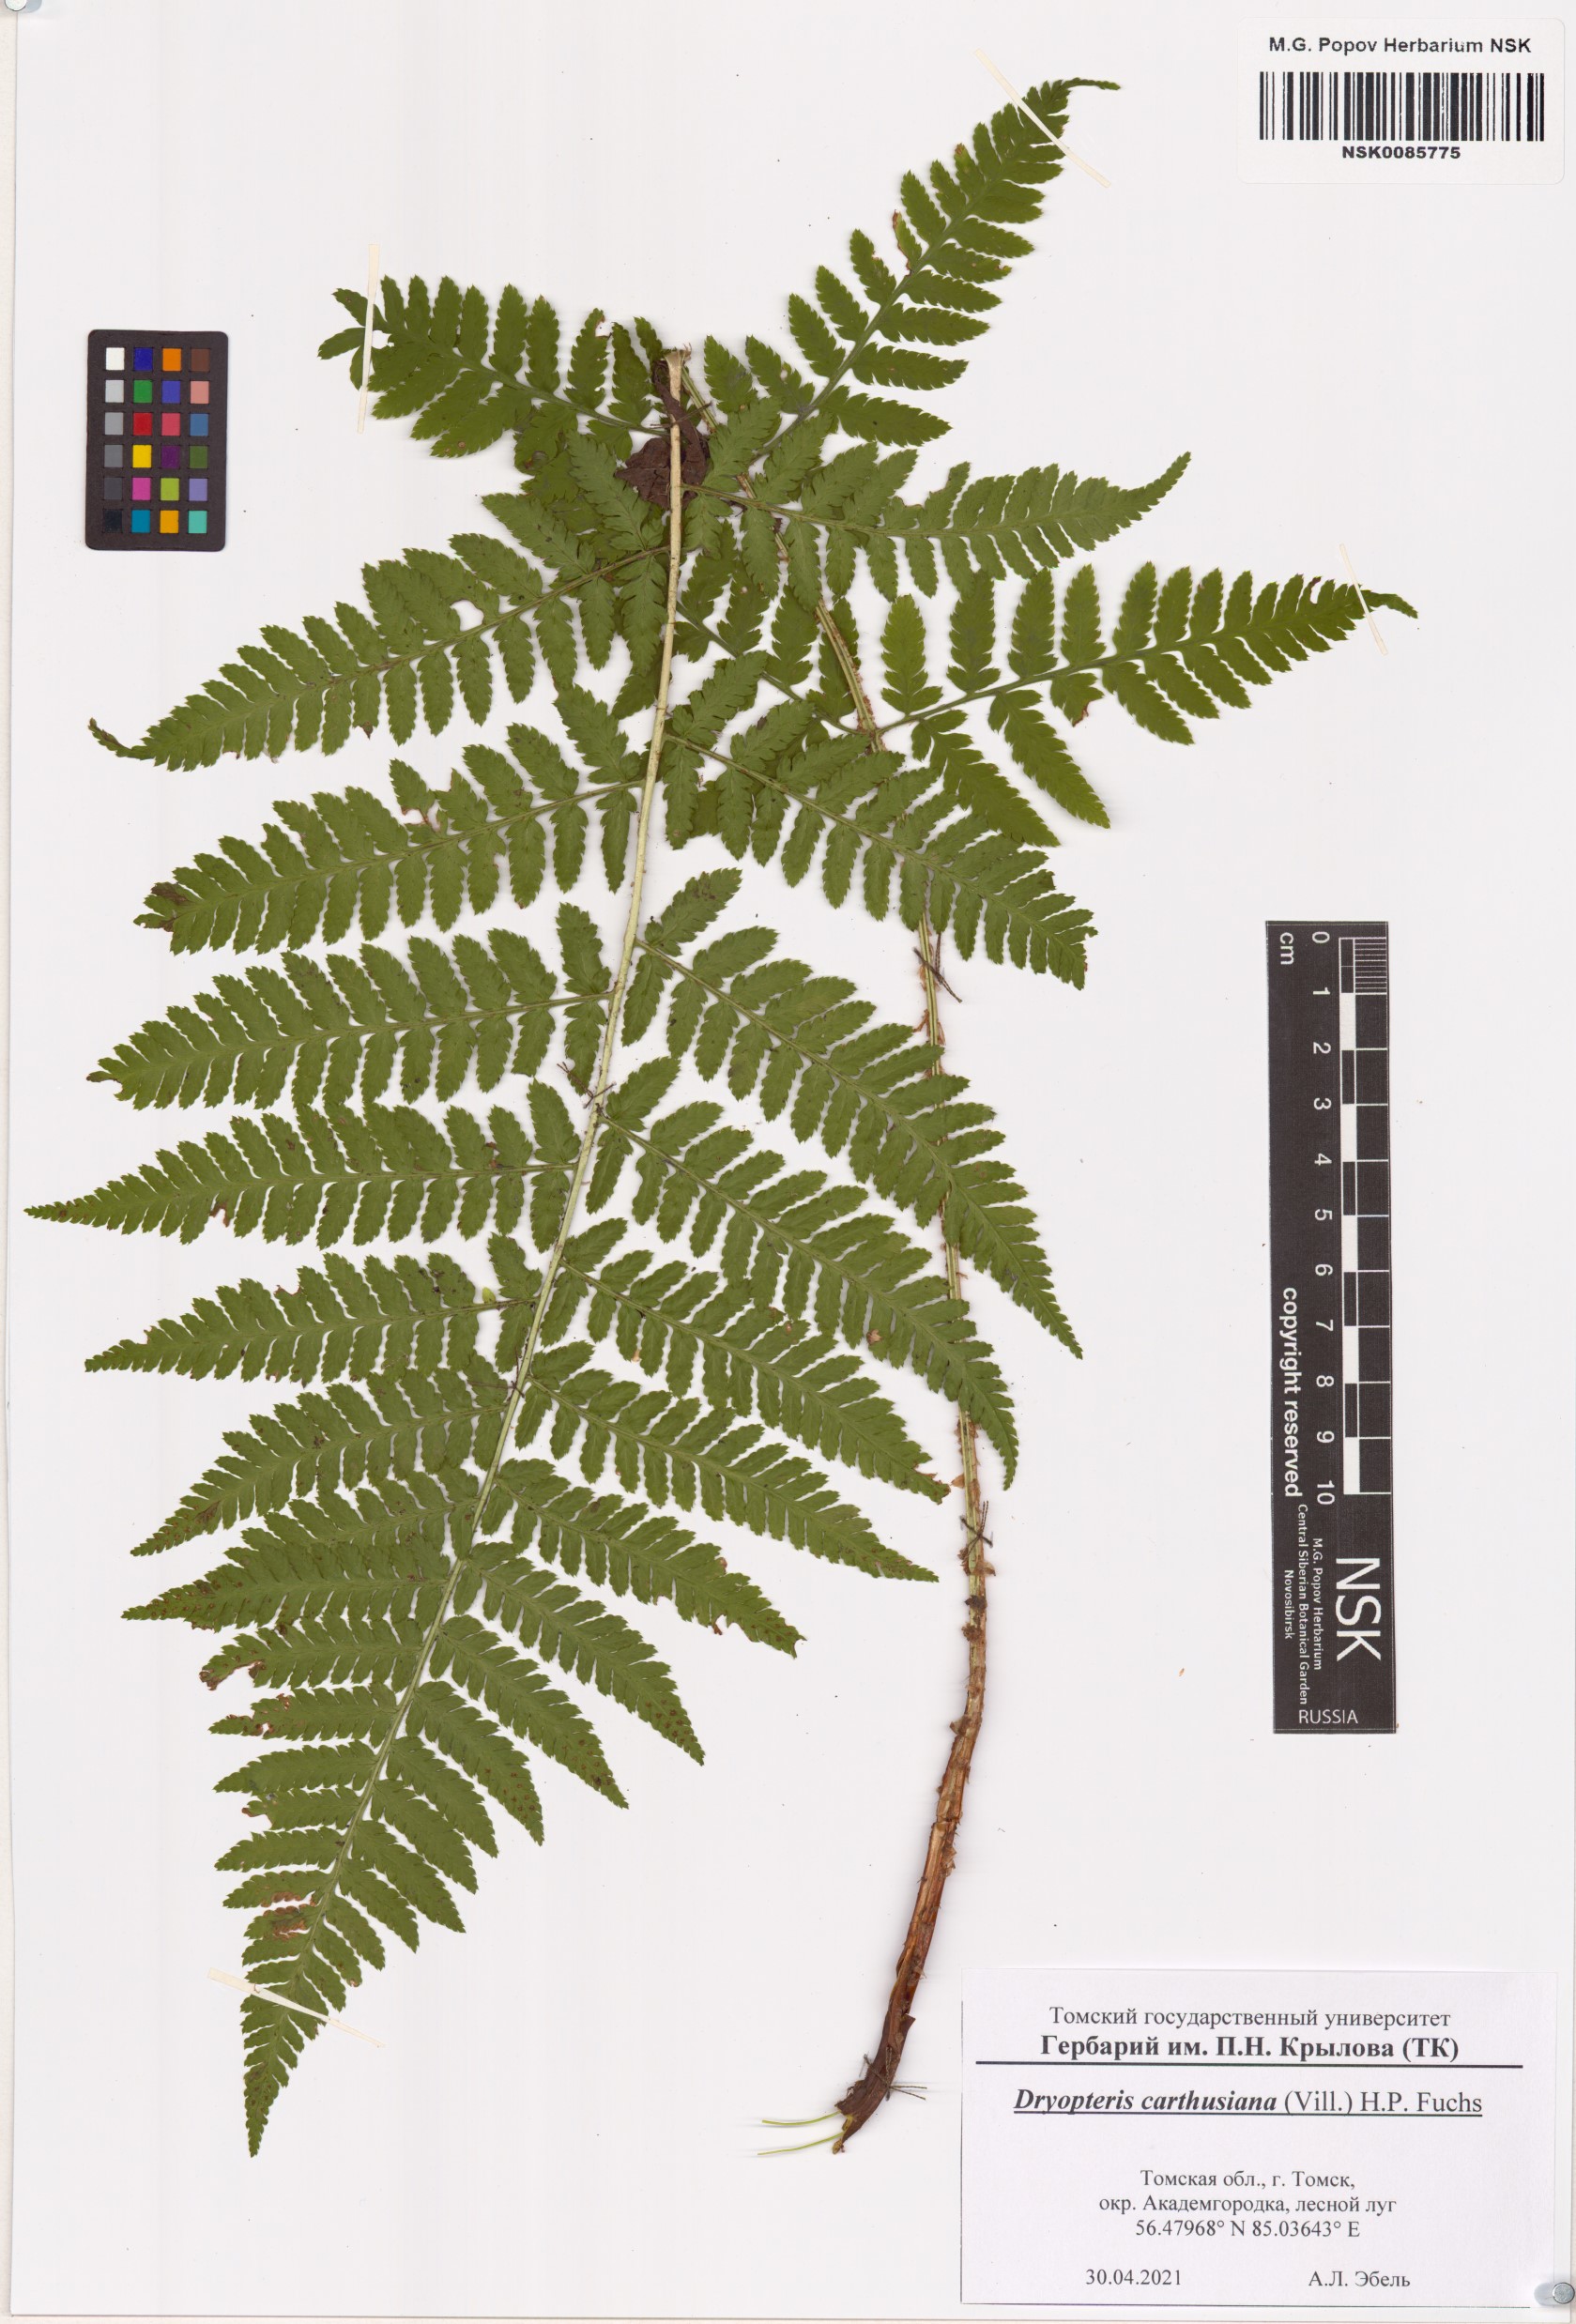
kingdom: Plantae
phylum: Tracheophyta
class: Polypodiopsida
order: Polypodiales
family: Dryopteridaceae
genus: Dryopteris
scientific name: Dryopteris carthusiana
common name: Narrow buckler-fern
